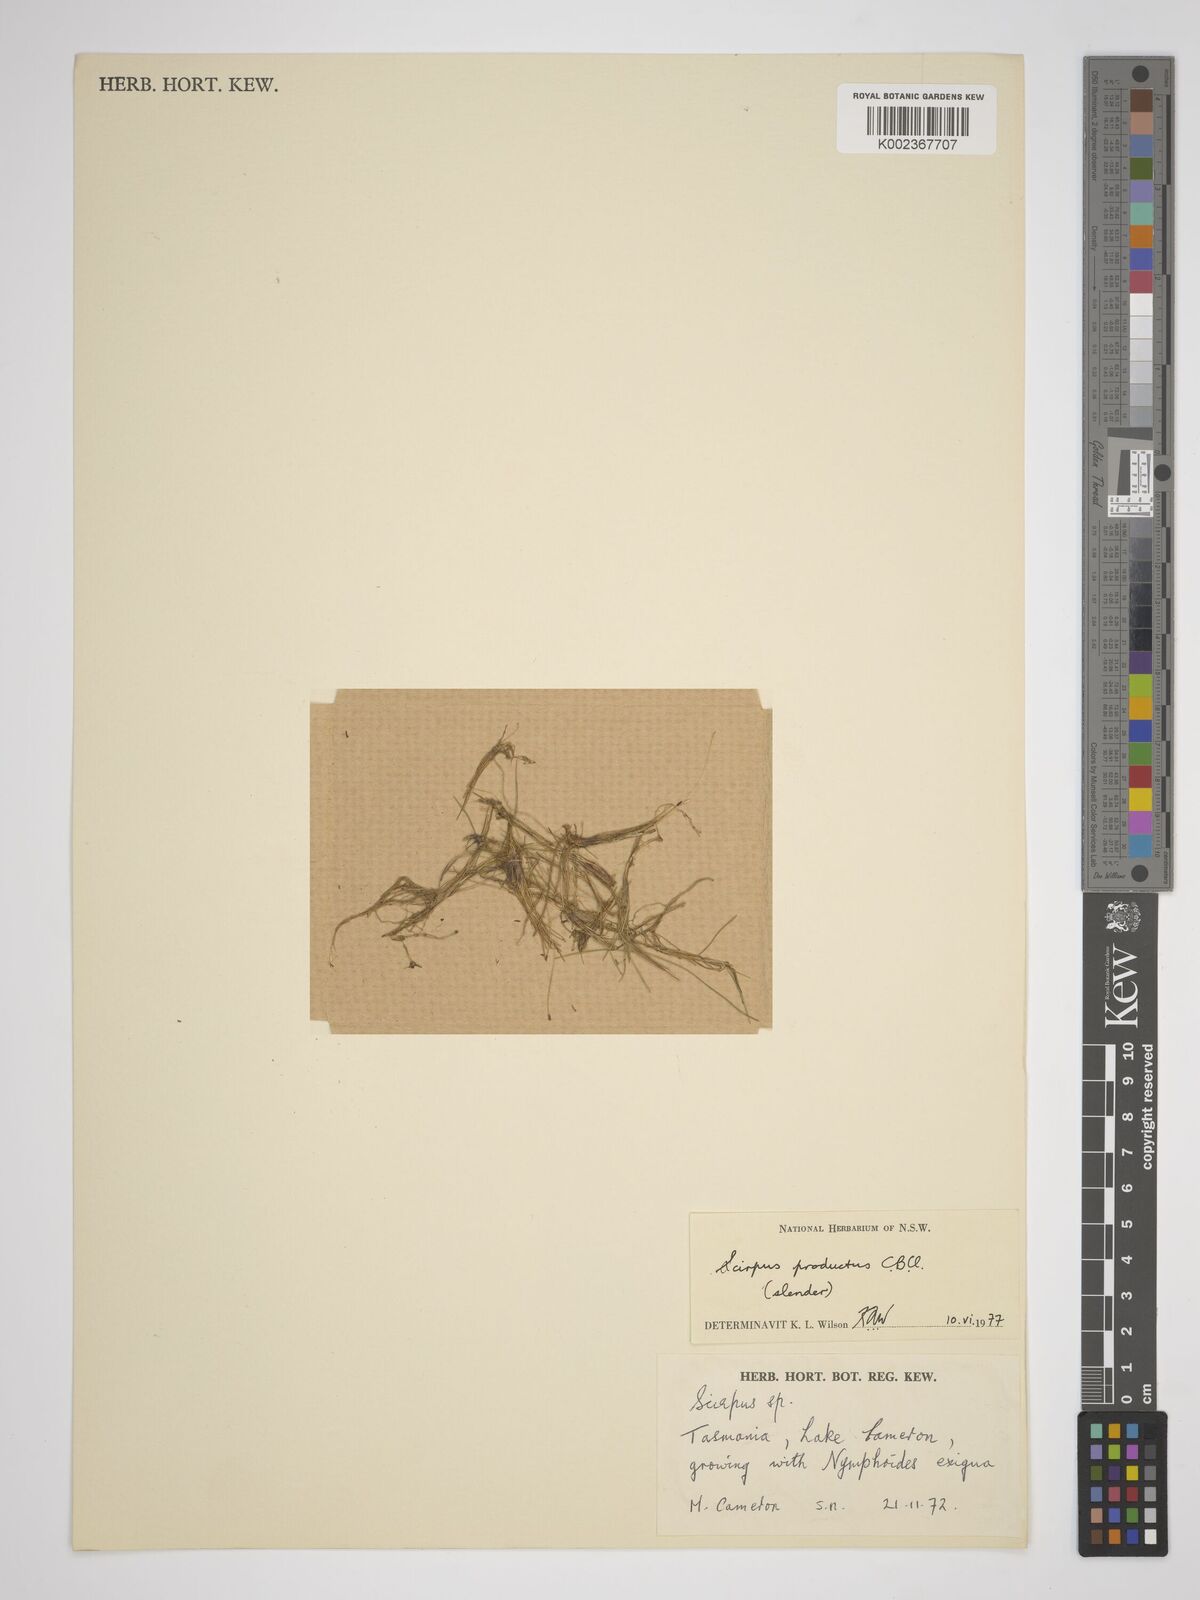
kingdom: Plantae
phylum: Tracheophyta
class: Liliopsida
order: Poales
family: Cyperaceae
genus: Isolepis
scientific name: Isolepis producta
